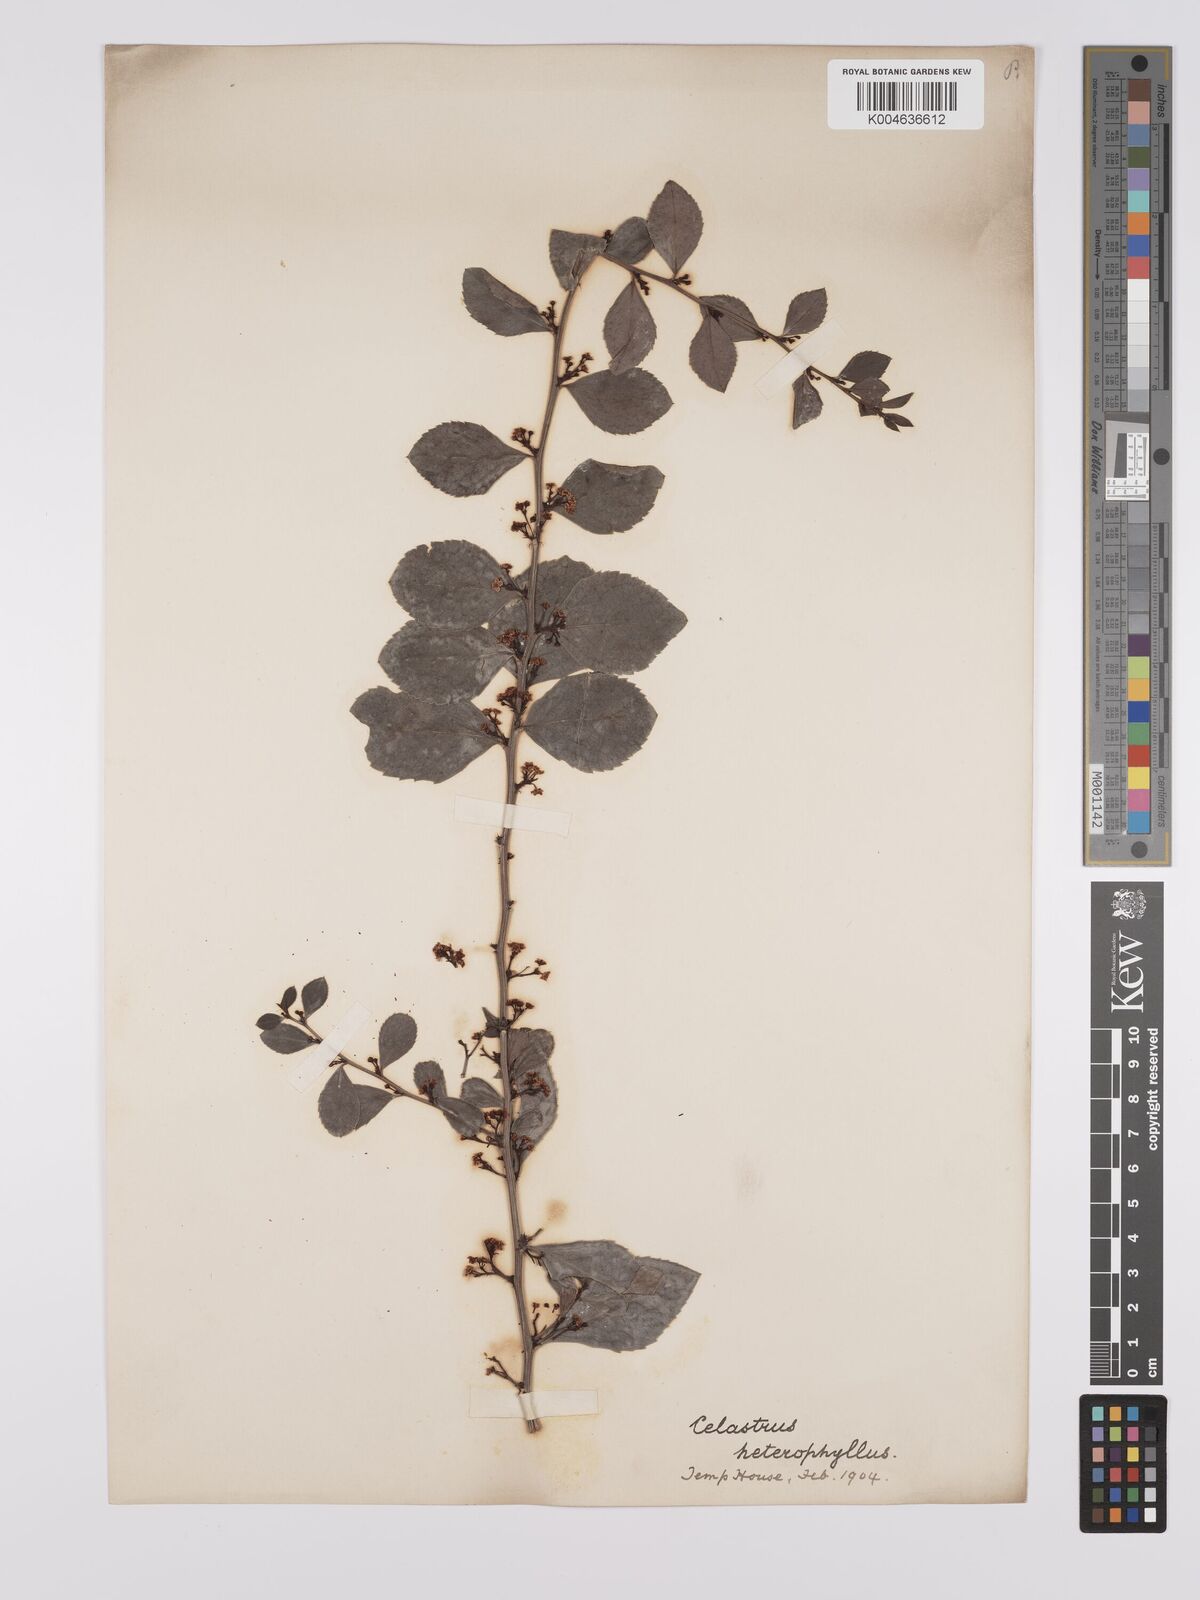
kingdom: Plantae
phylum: Tracheophyta
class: Magnoliopsida
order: Celastrales
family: Celastraceae
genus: Celastrus
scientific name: Celastrus
